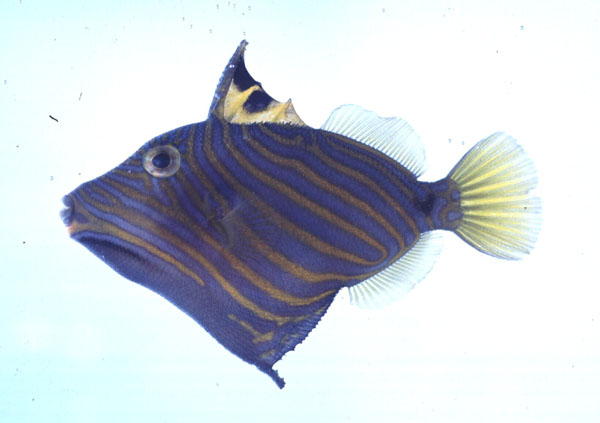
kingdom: Animalia
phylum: Chordata
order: Tetraodontiformes
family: Balistidae
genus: Balistapus
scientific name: Balistapus undulatus
